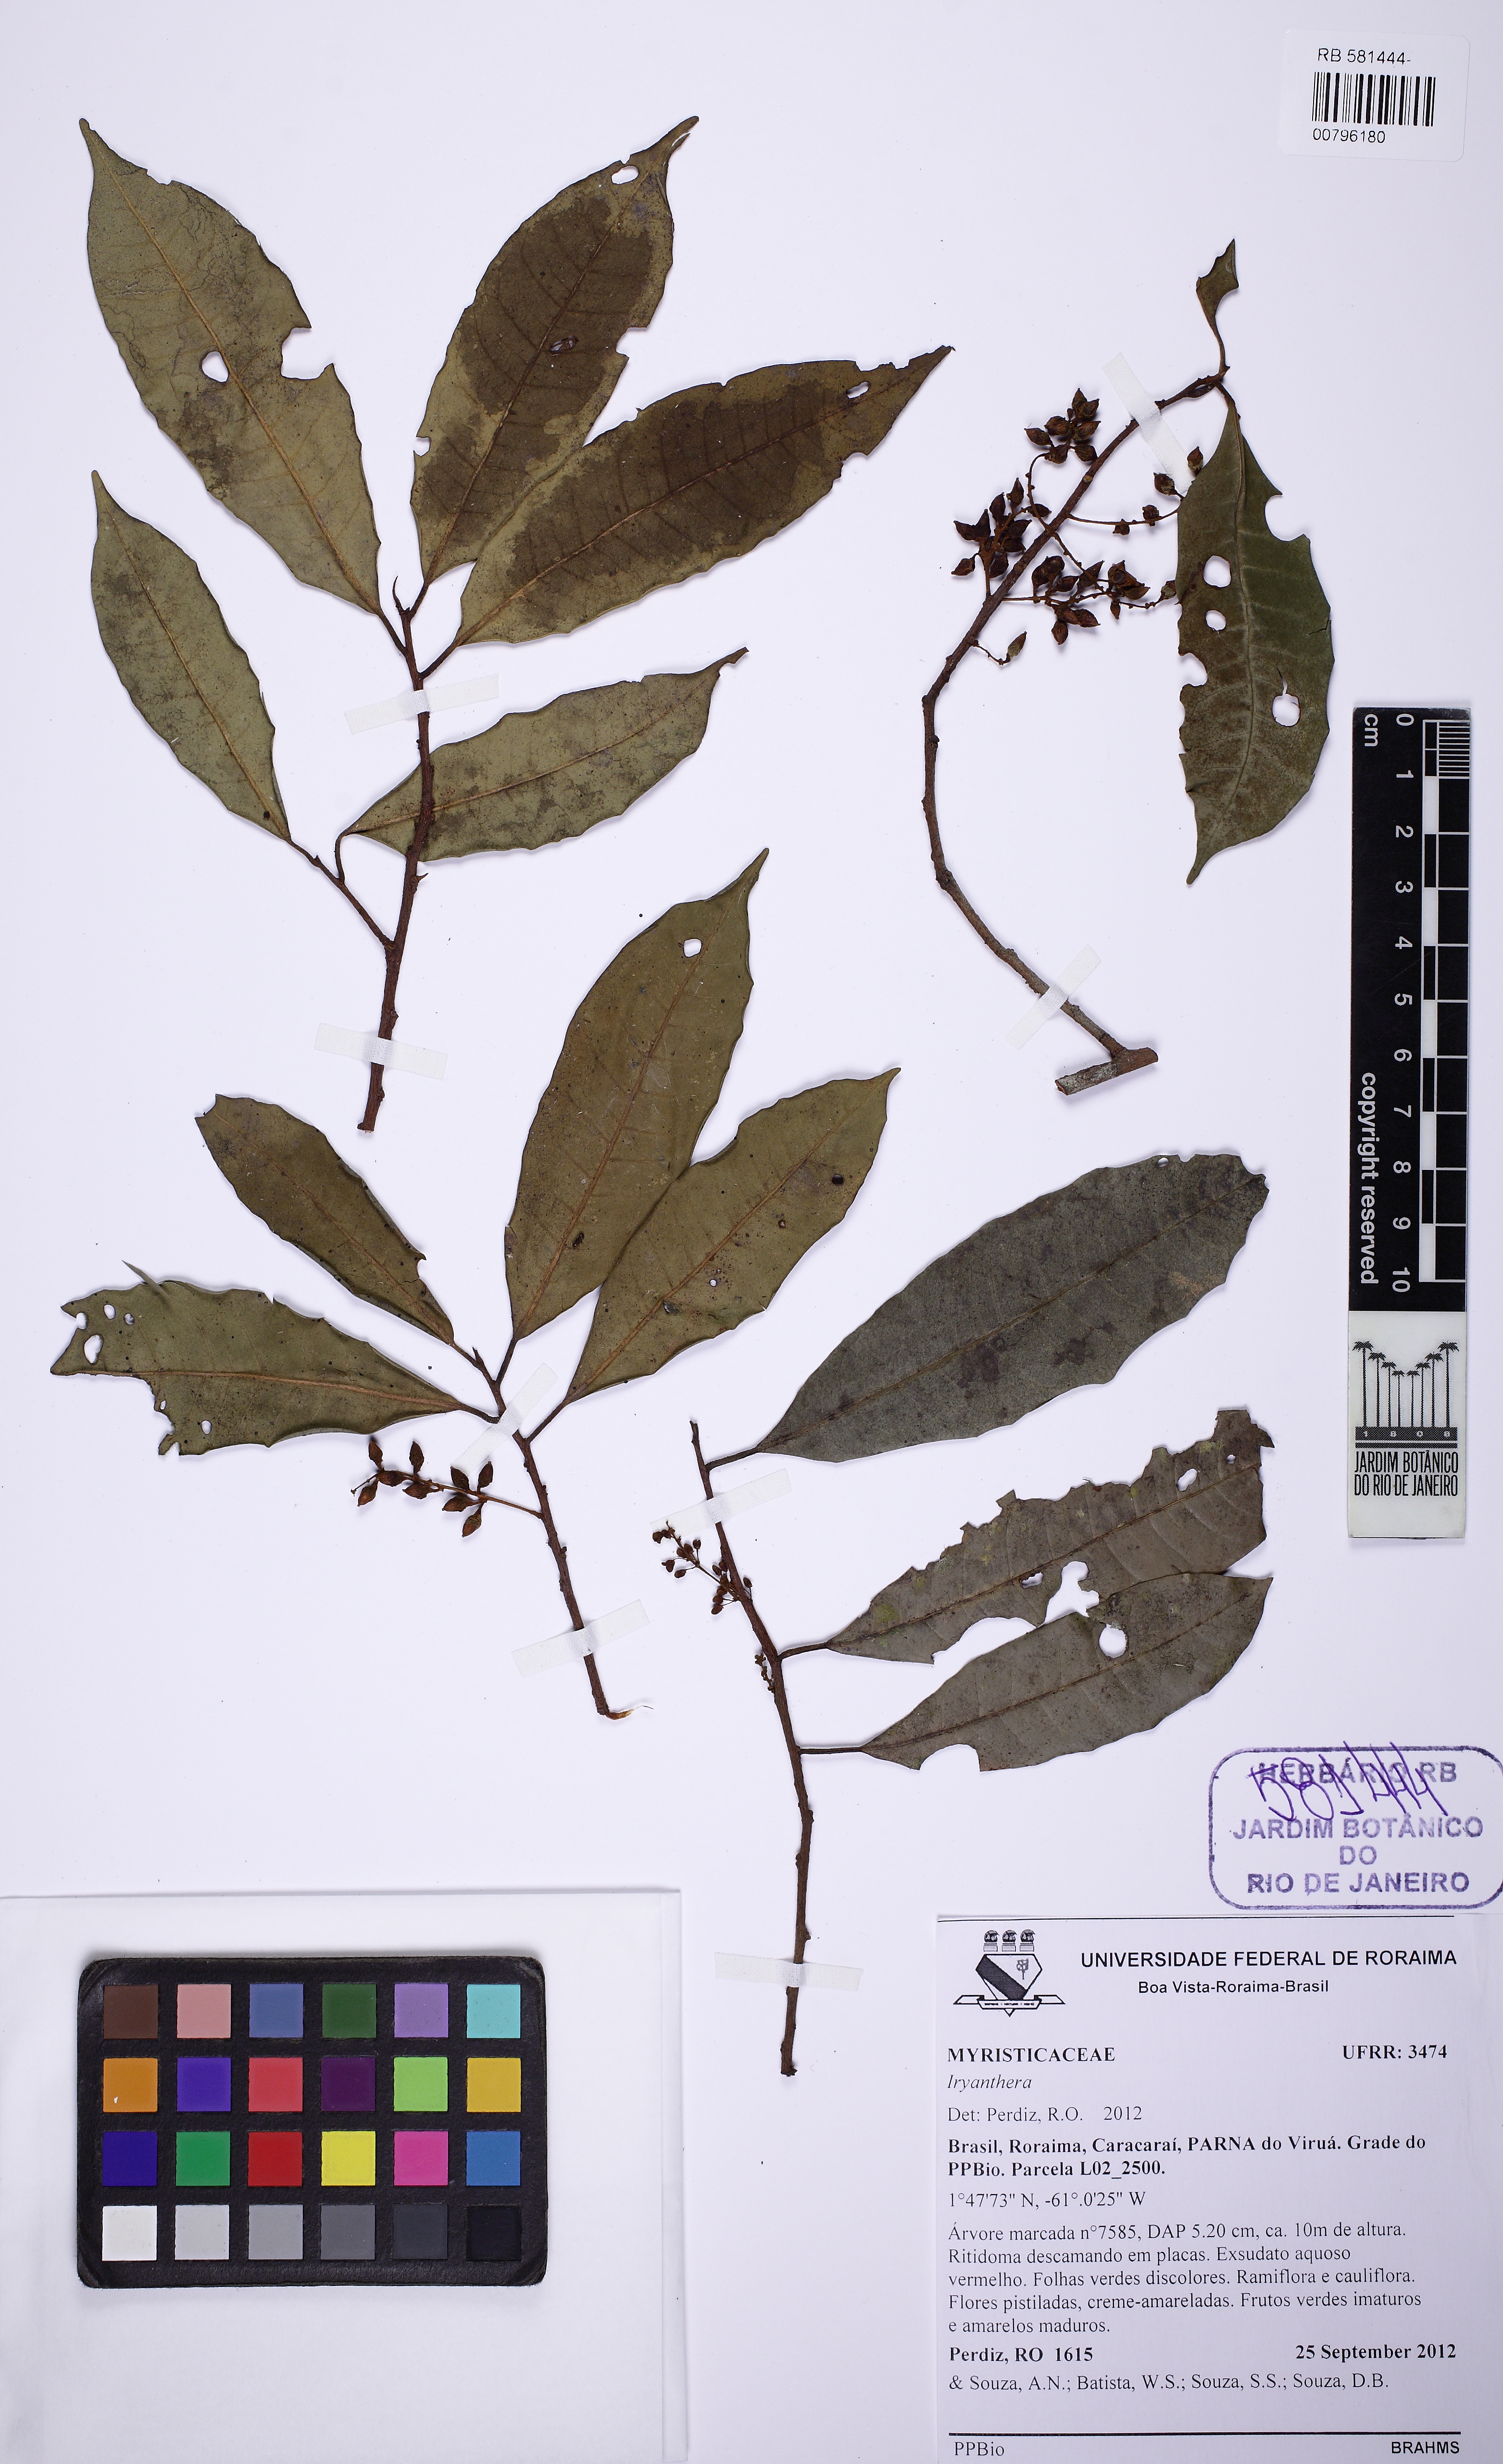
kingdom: Plantae
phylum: Tracheophyta
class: Magnoliopsida
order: Magnoliales
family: Myristicaceae
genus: Iryanthera
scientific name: Iryanthera
